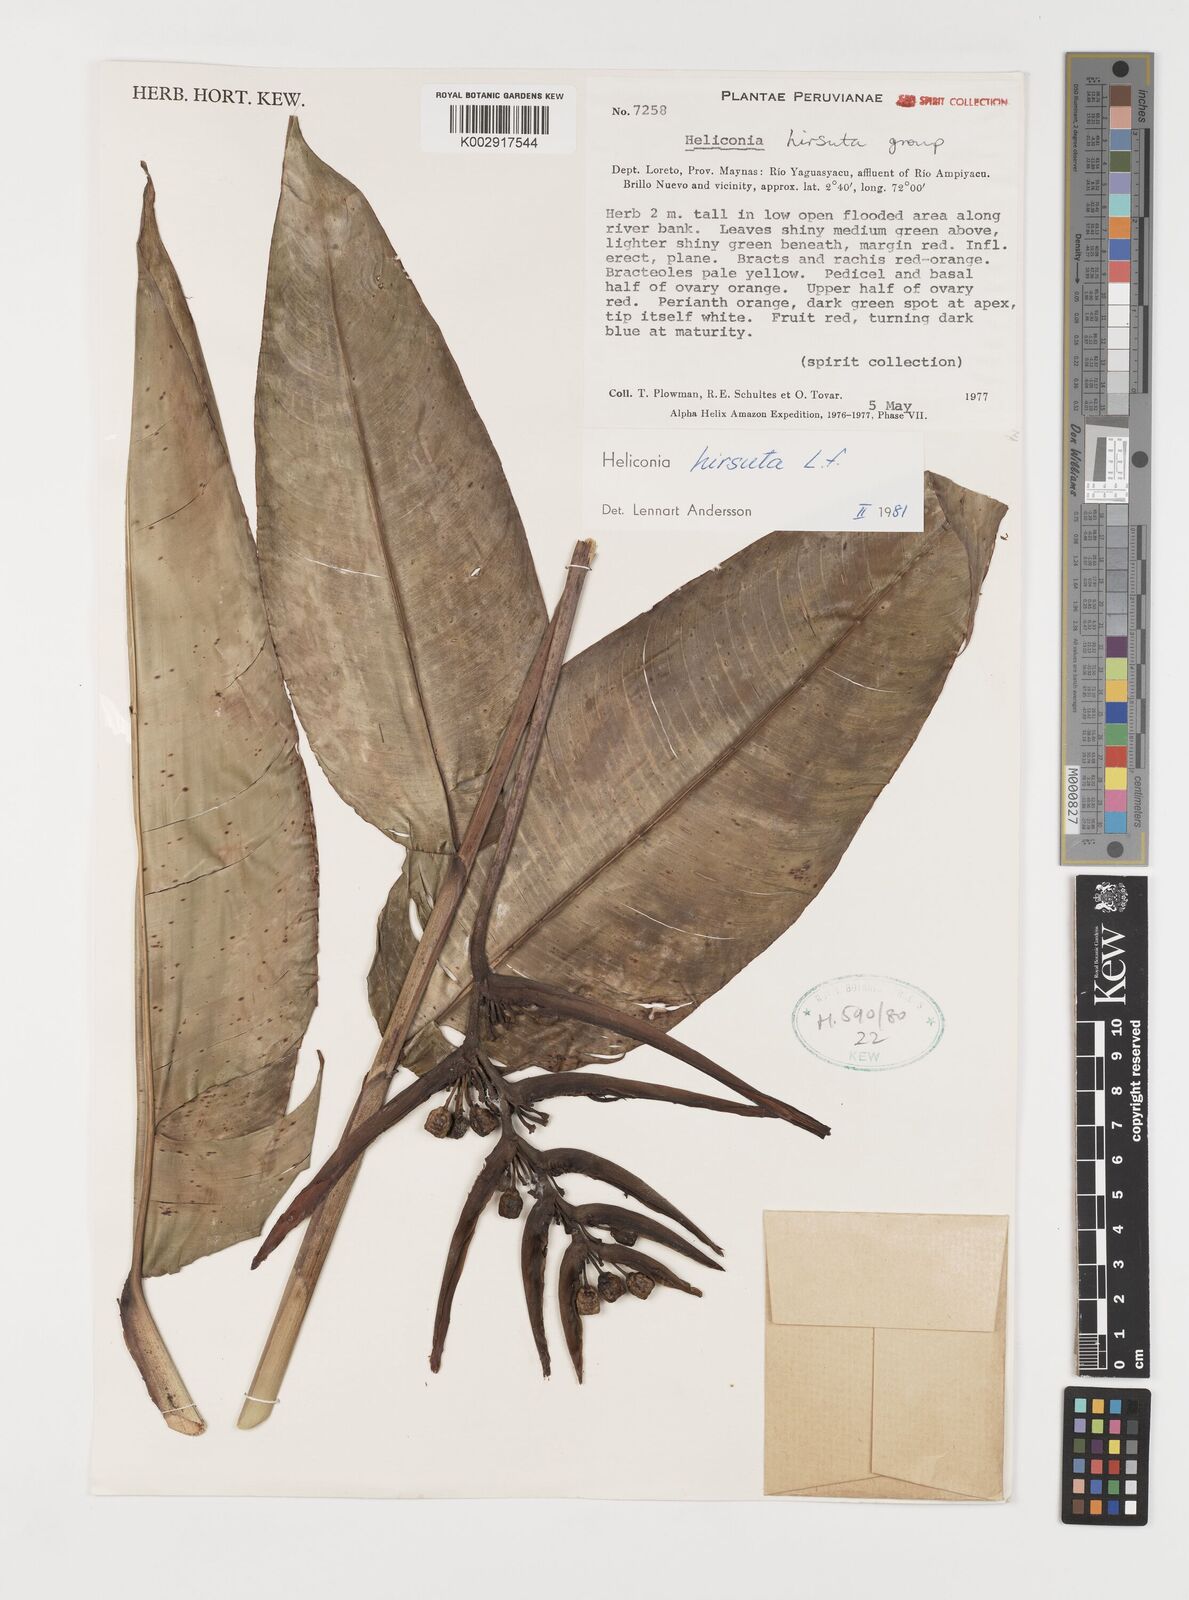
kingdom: Plantae
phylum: Tracheophyta
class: Liliopsida
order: Zingiberales
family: Heliconiaceae
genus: Heliconia
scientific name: Heliconia hirsuta
